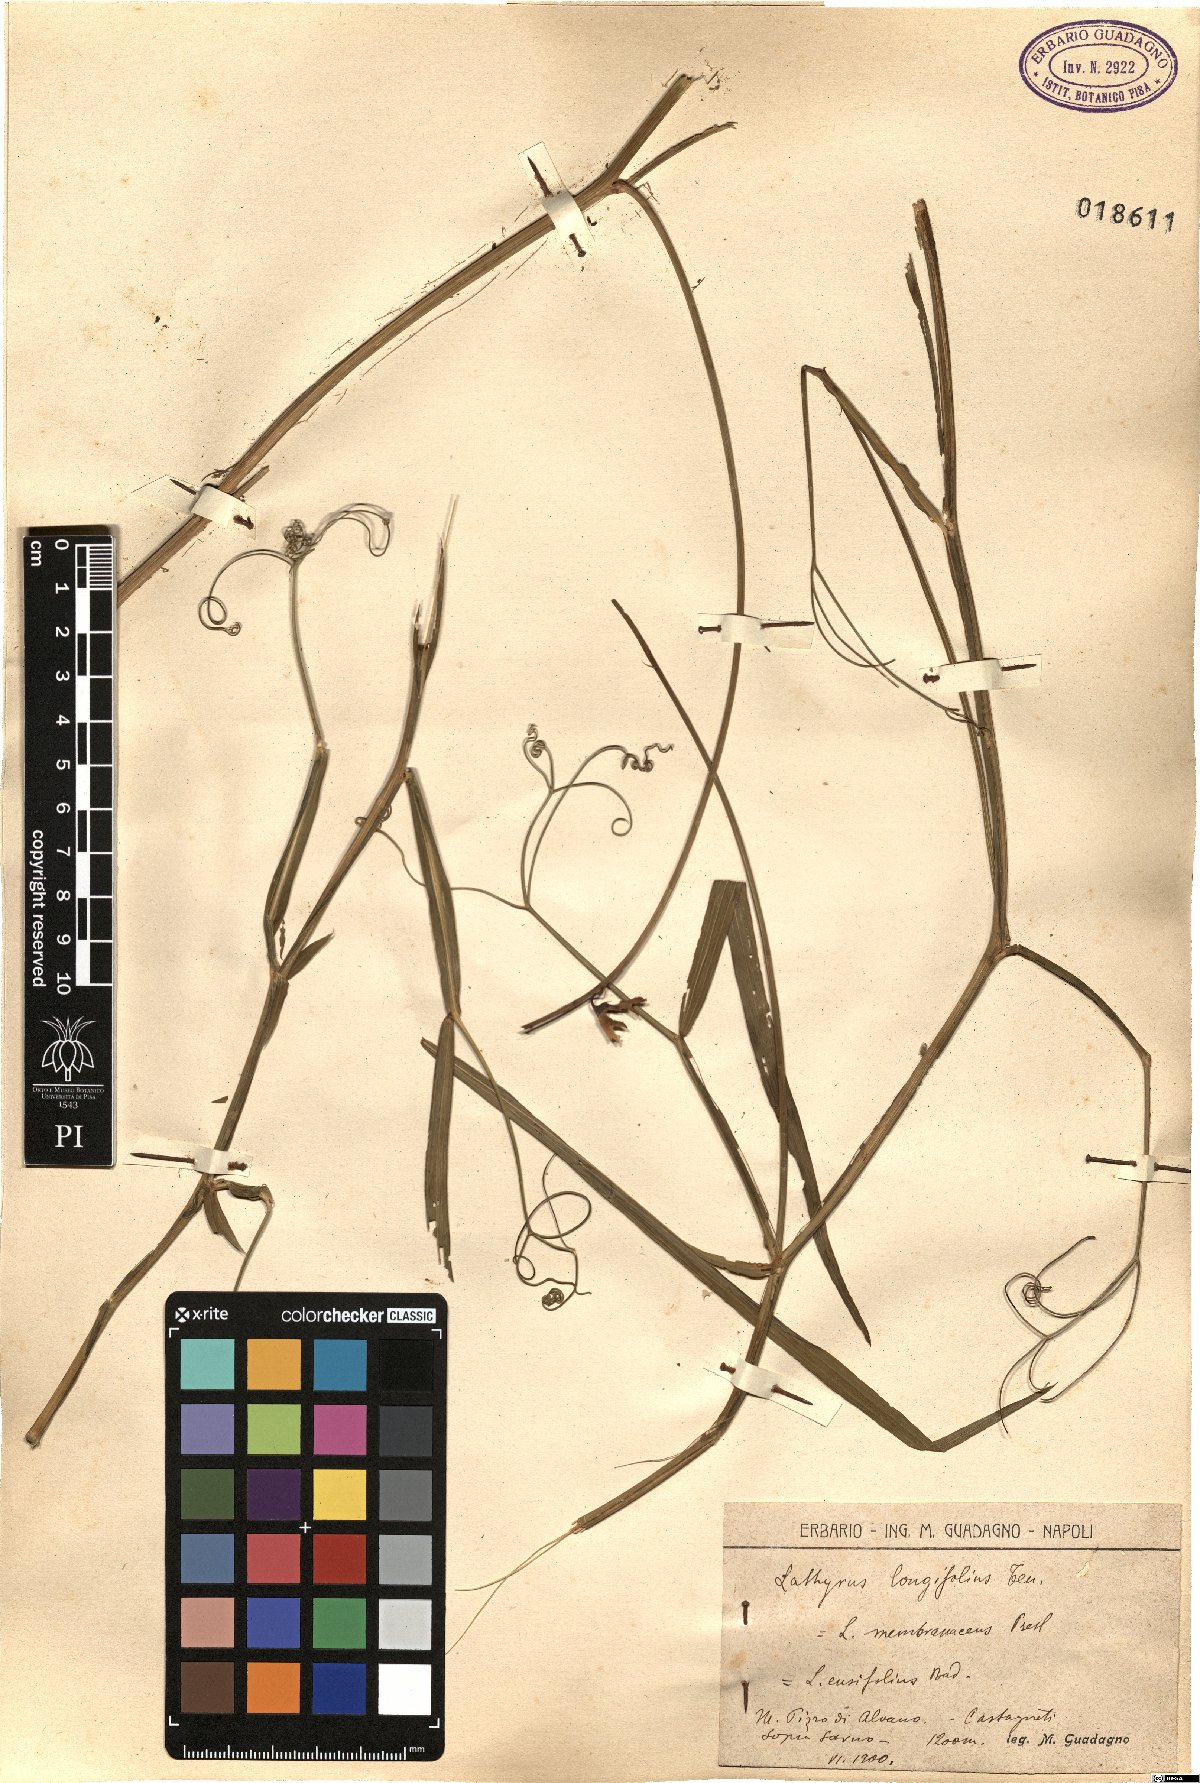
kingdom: Plantae
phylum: Tracheophyta
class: Magnoliopsida
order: Fabales
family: Fabaceae
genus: Lathyrus
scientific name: Lathyrus latifolius
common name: Perennial pea
